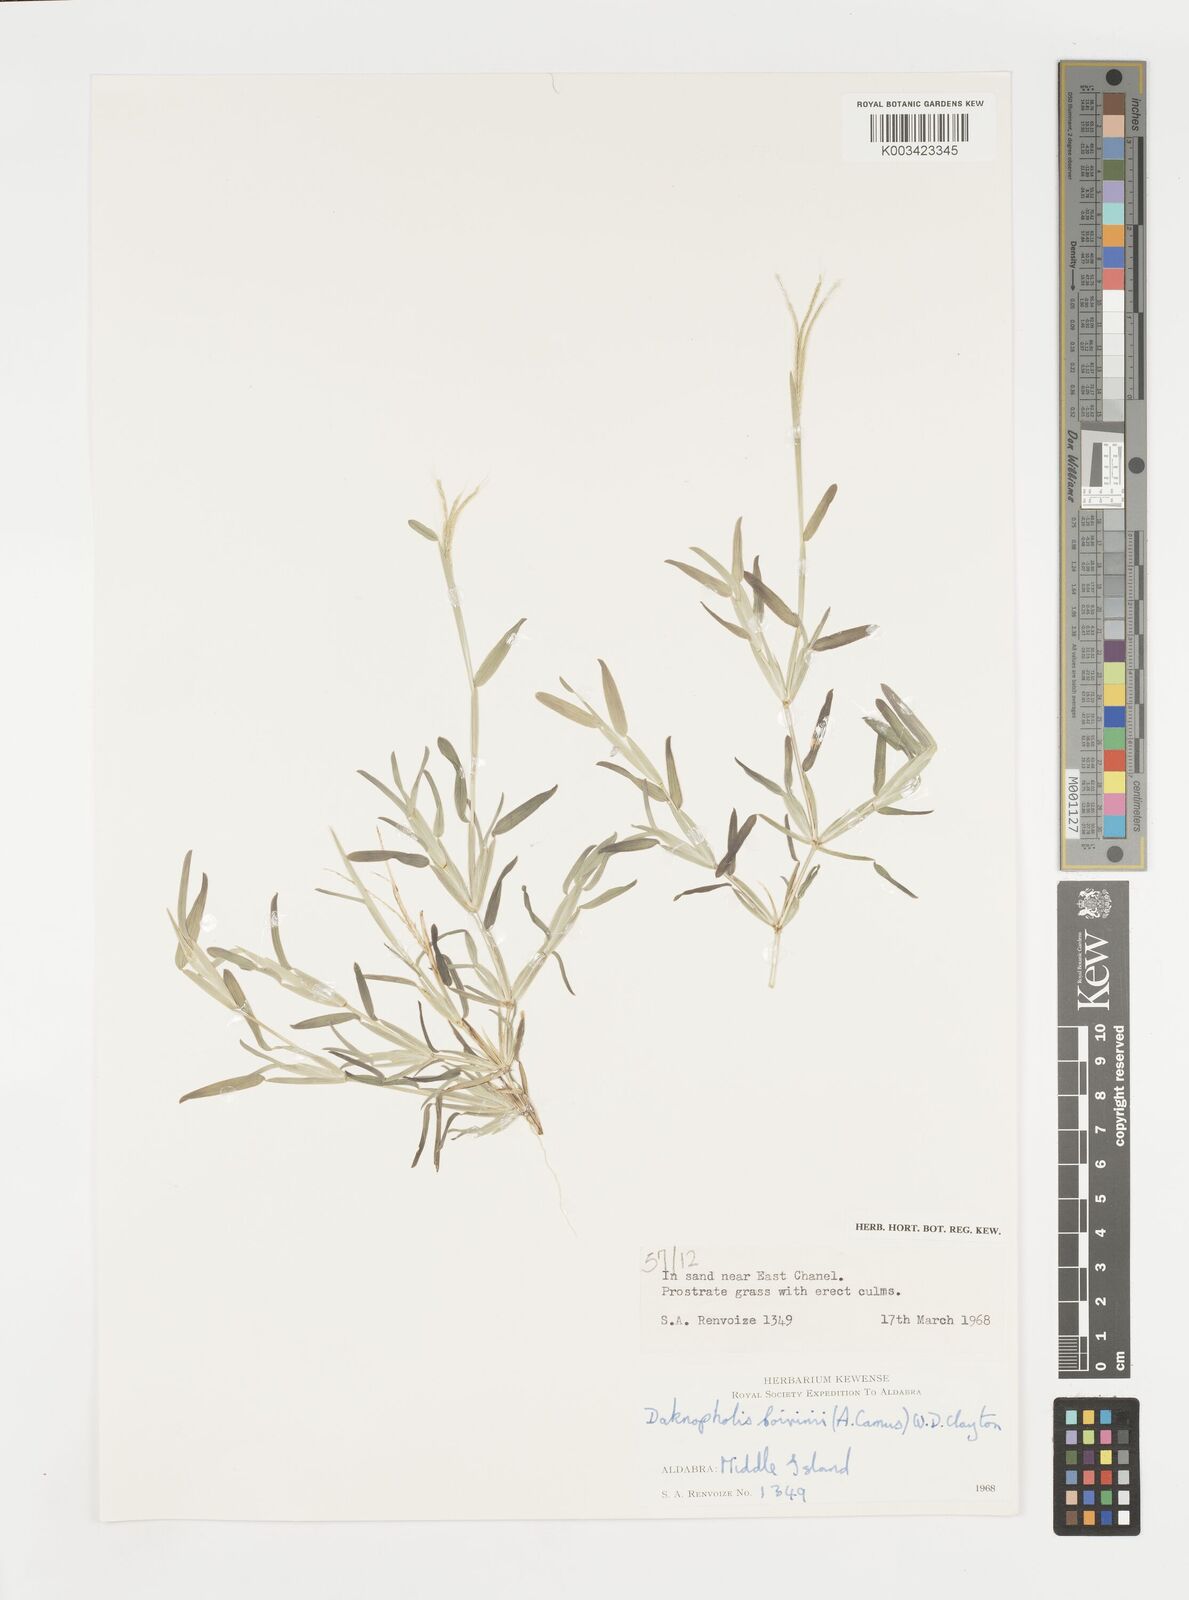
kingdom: Plantae
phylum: Tracheophyta
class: Liliopsida
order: Poales
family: Poaceae
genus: Daknopholis
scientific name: Daknopholis boivinii
